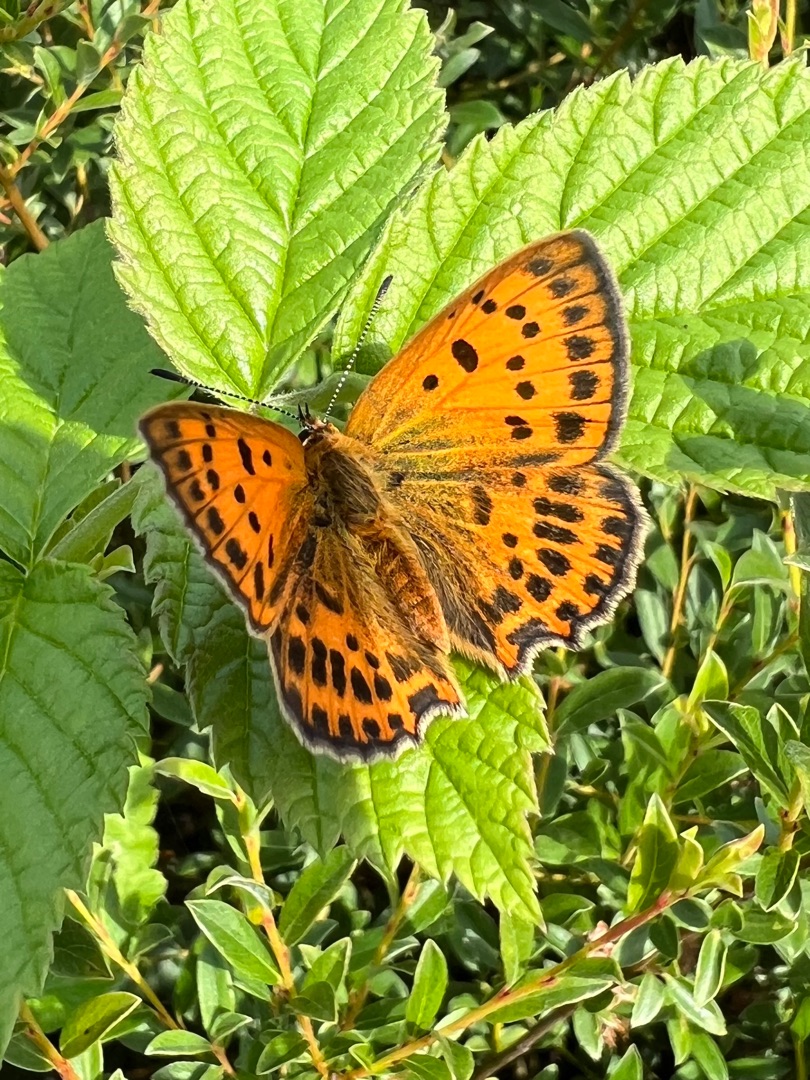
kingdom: Animalia
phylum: Arthropoda
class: Insecta
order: Lepidoptera
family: Lycaenidae
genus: Lycaena
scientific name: Lycaena virgaureae
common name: Dukatsommerfugl
